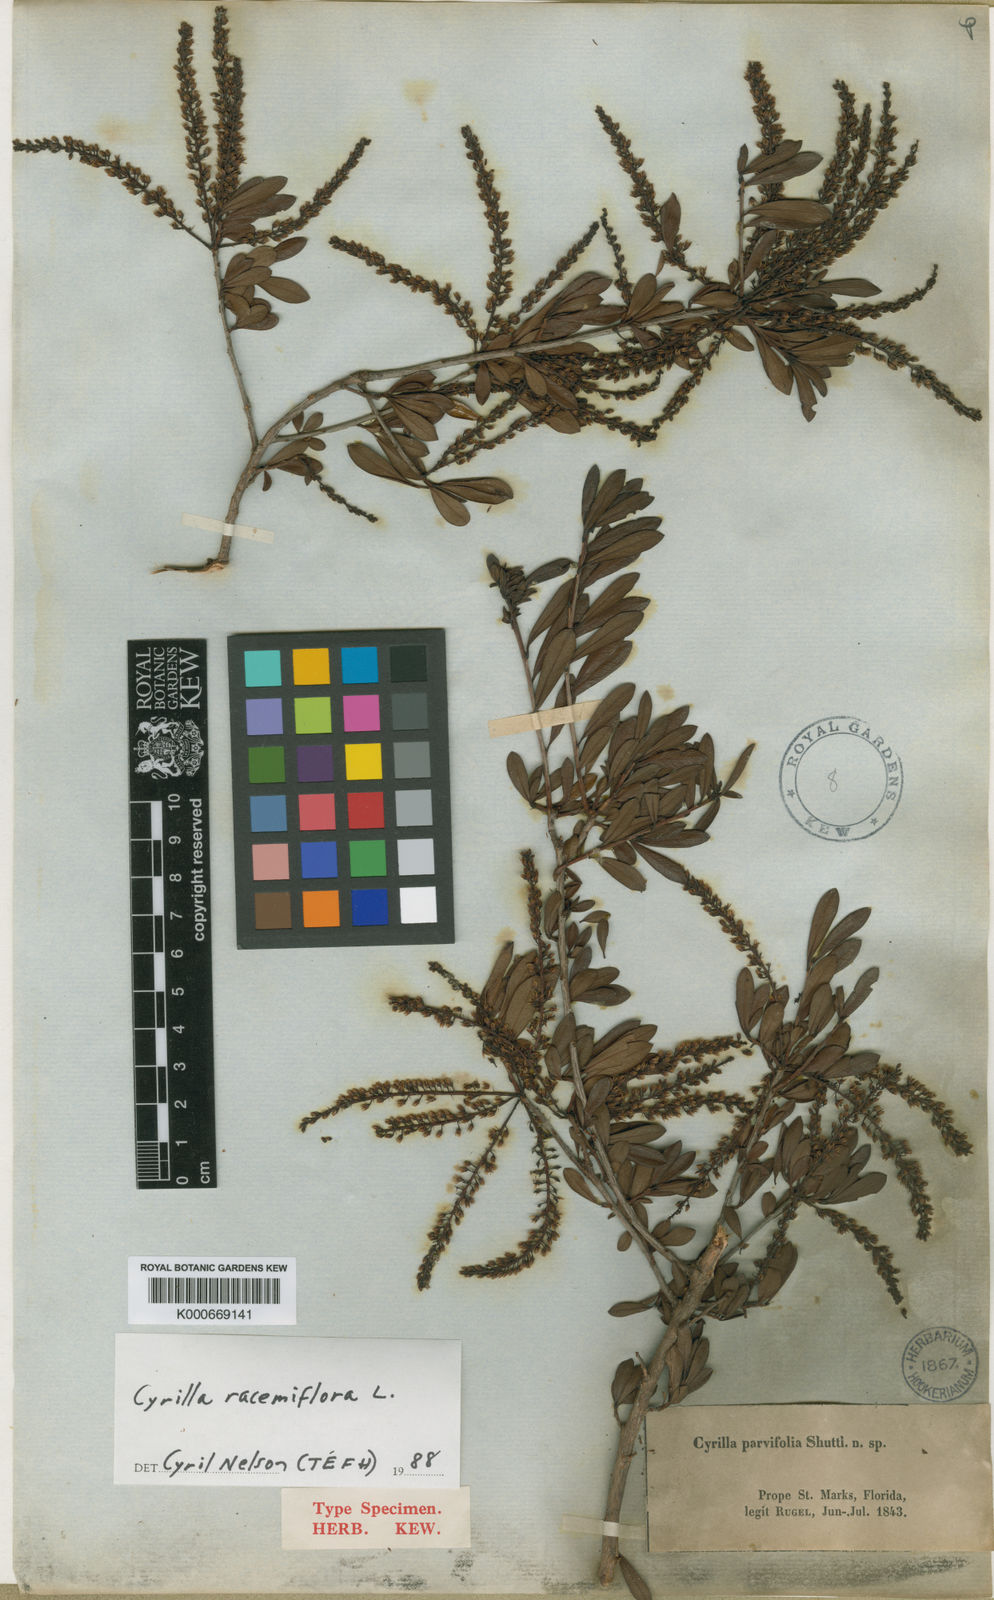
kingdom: Plantae
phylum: Tracheophyta
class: Magnoliopsida
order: Ericales
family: Cyrillaceae
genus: Cyrilla
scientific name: Cyrilla
